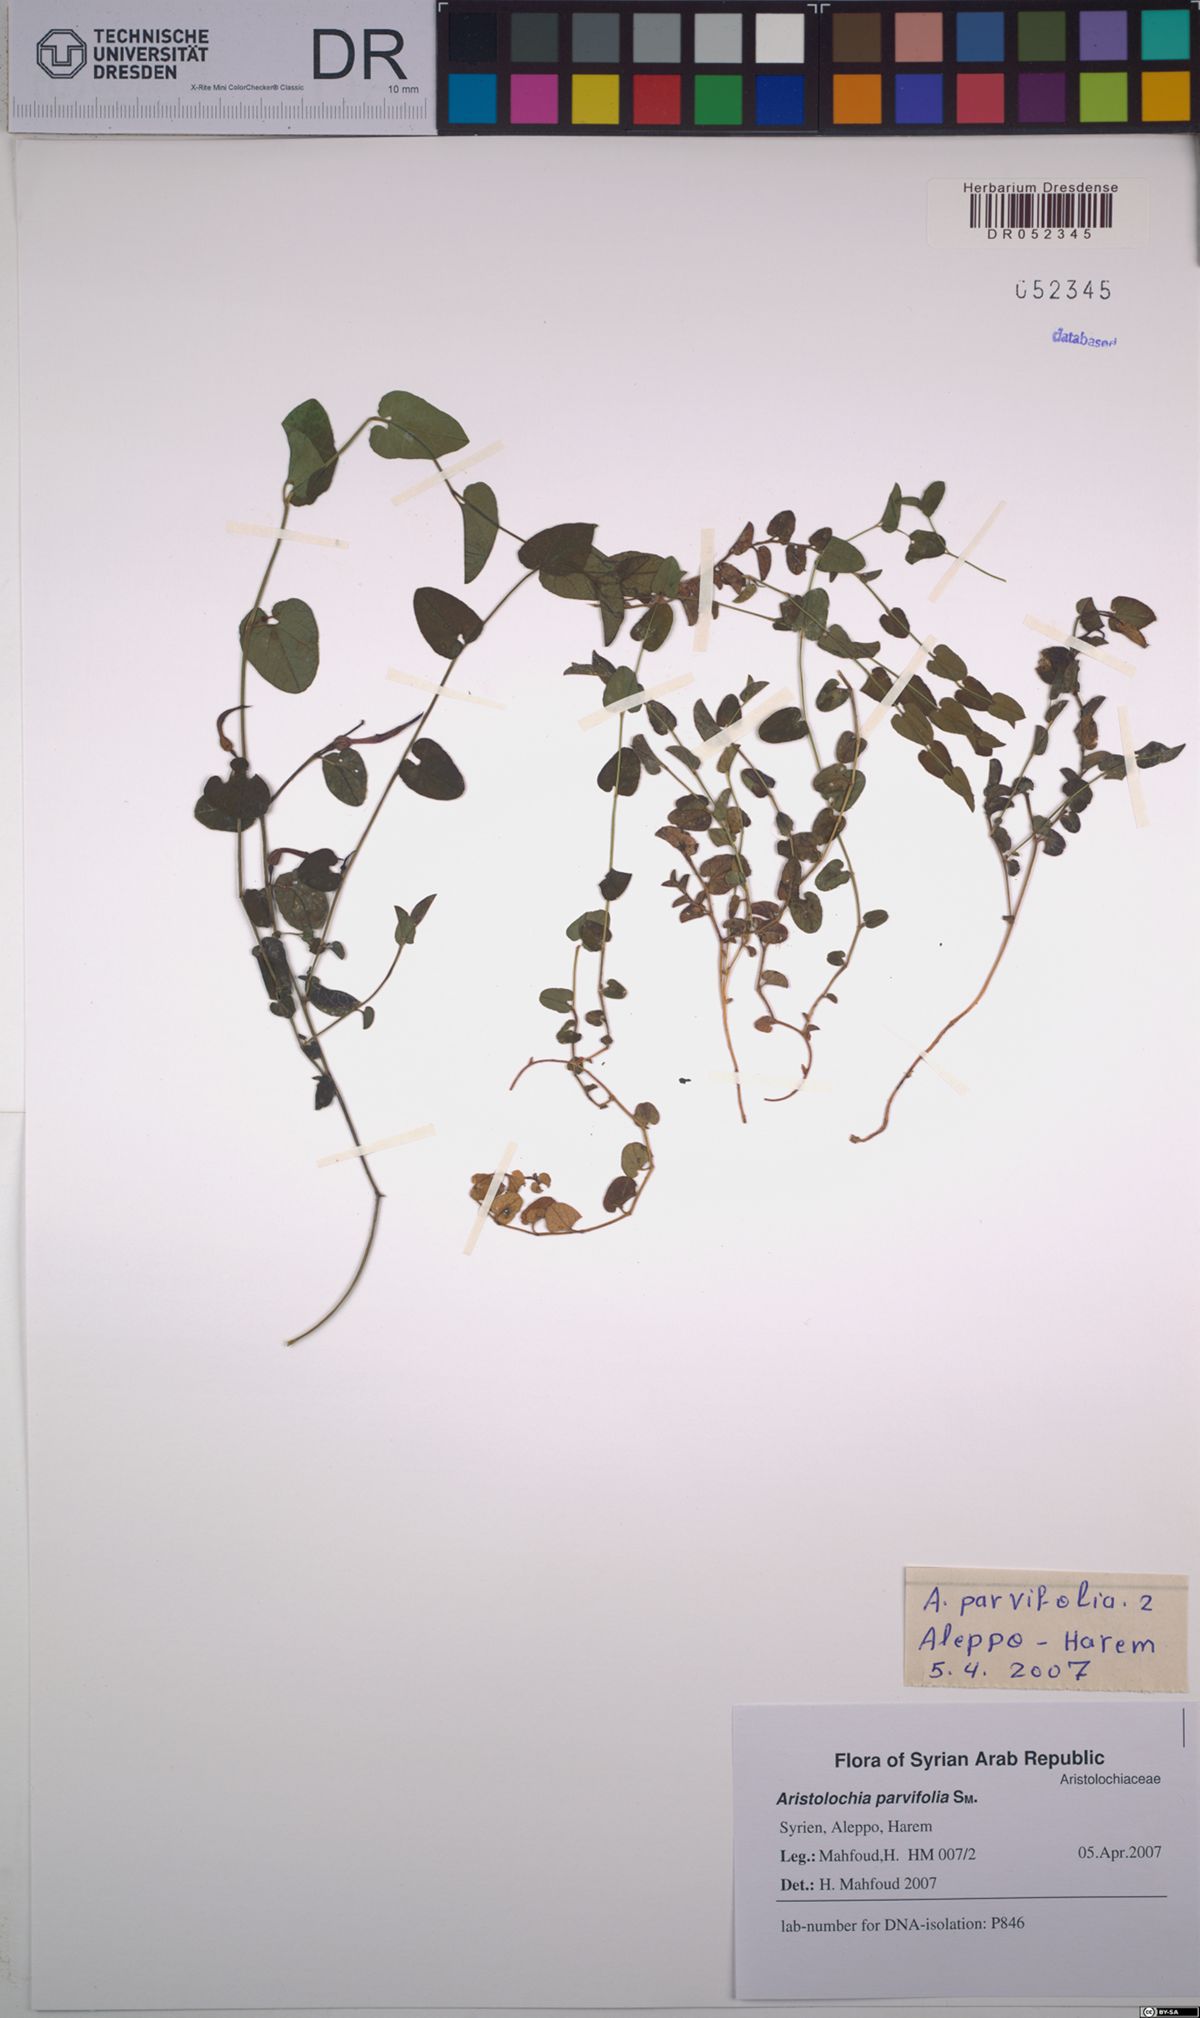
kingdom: Plantae
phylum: Tracheophyta
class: Magnoliopsida
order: Piperales
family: Aristolochiaceae
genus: Aristolochia
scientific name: Aristolochia parvifolia
